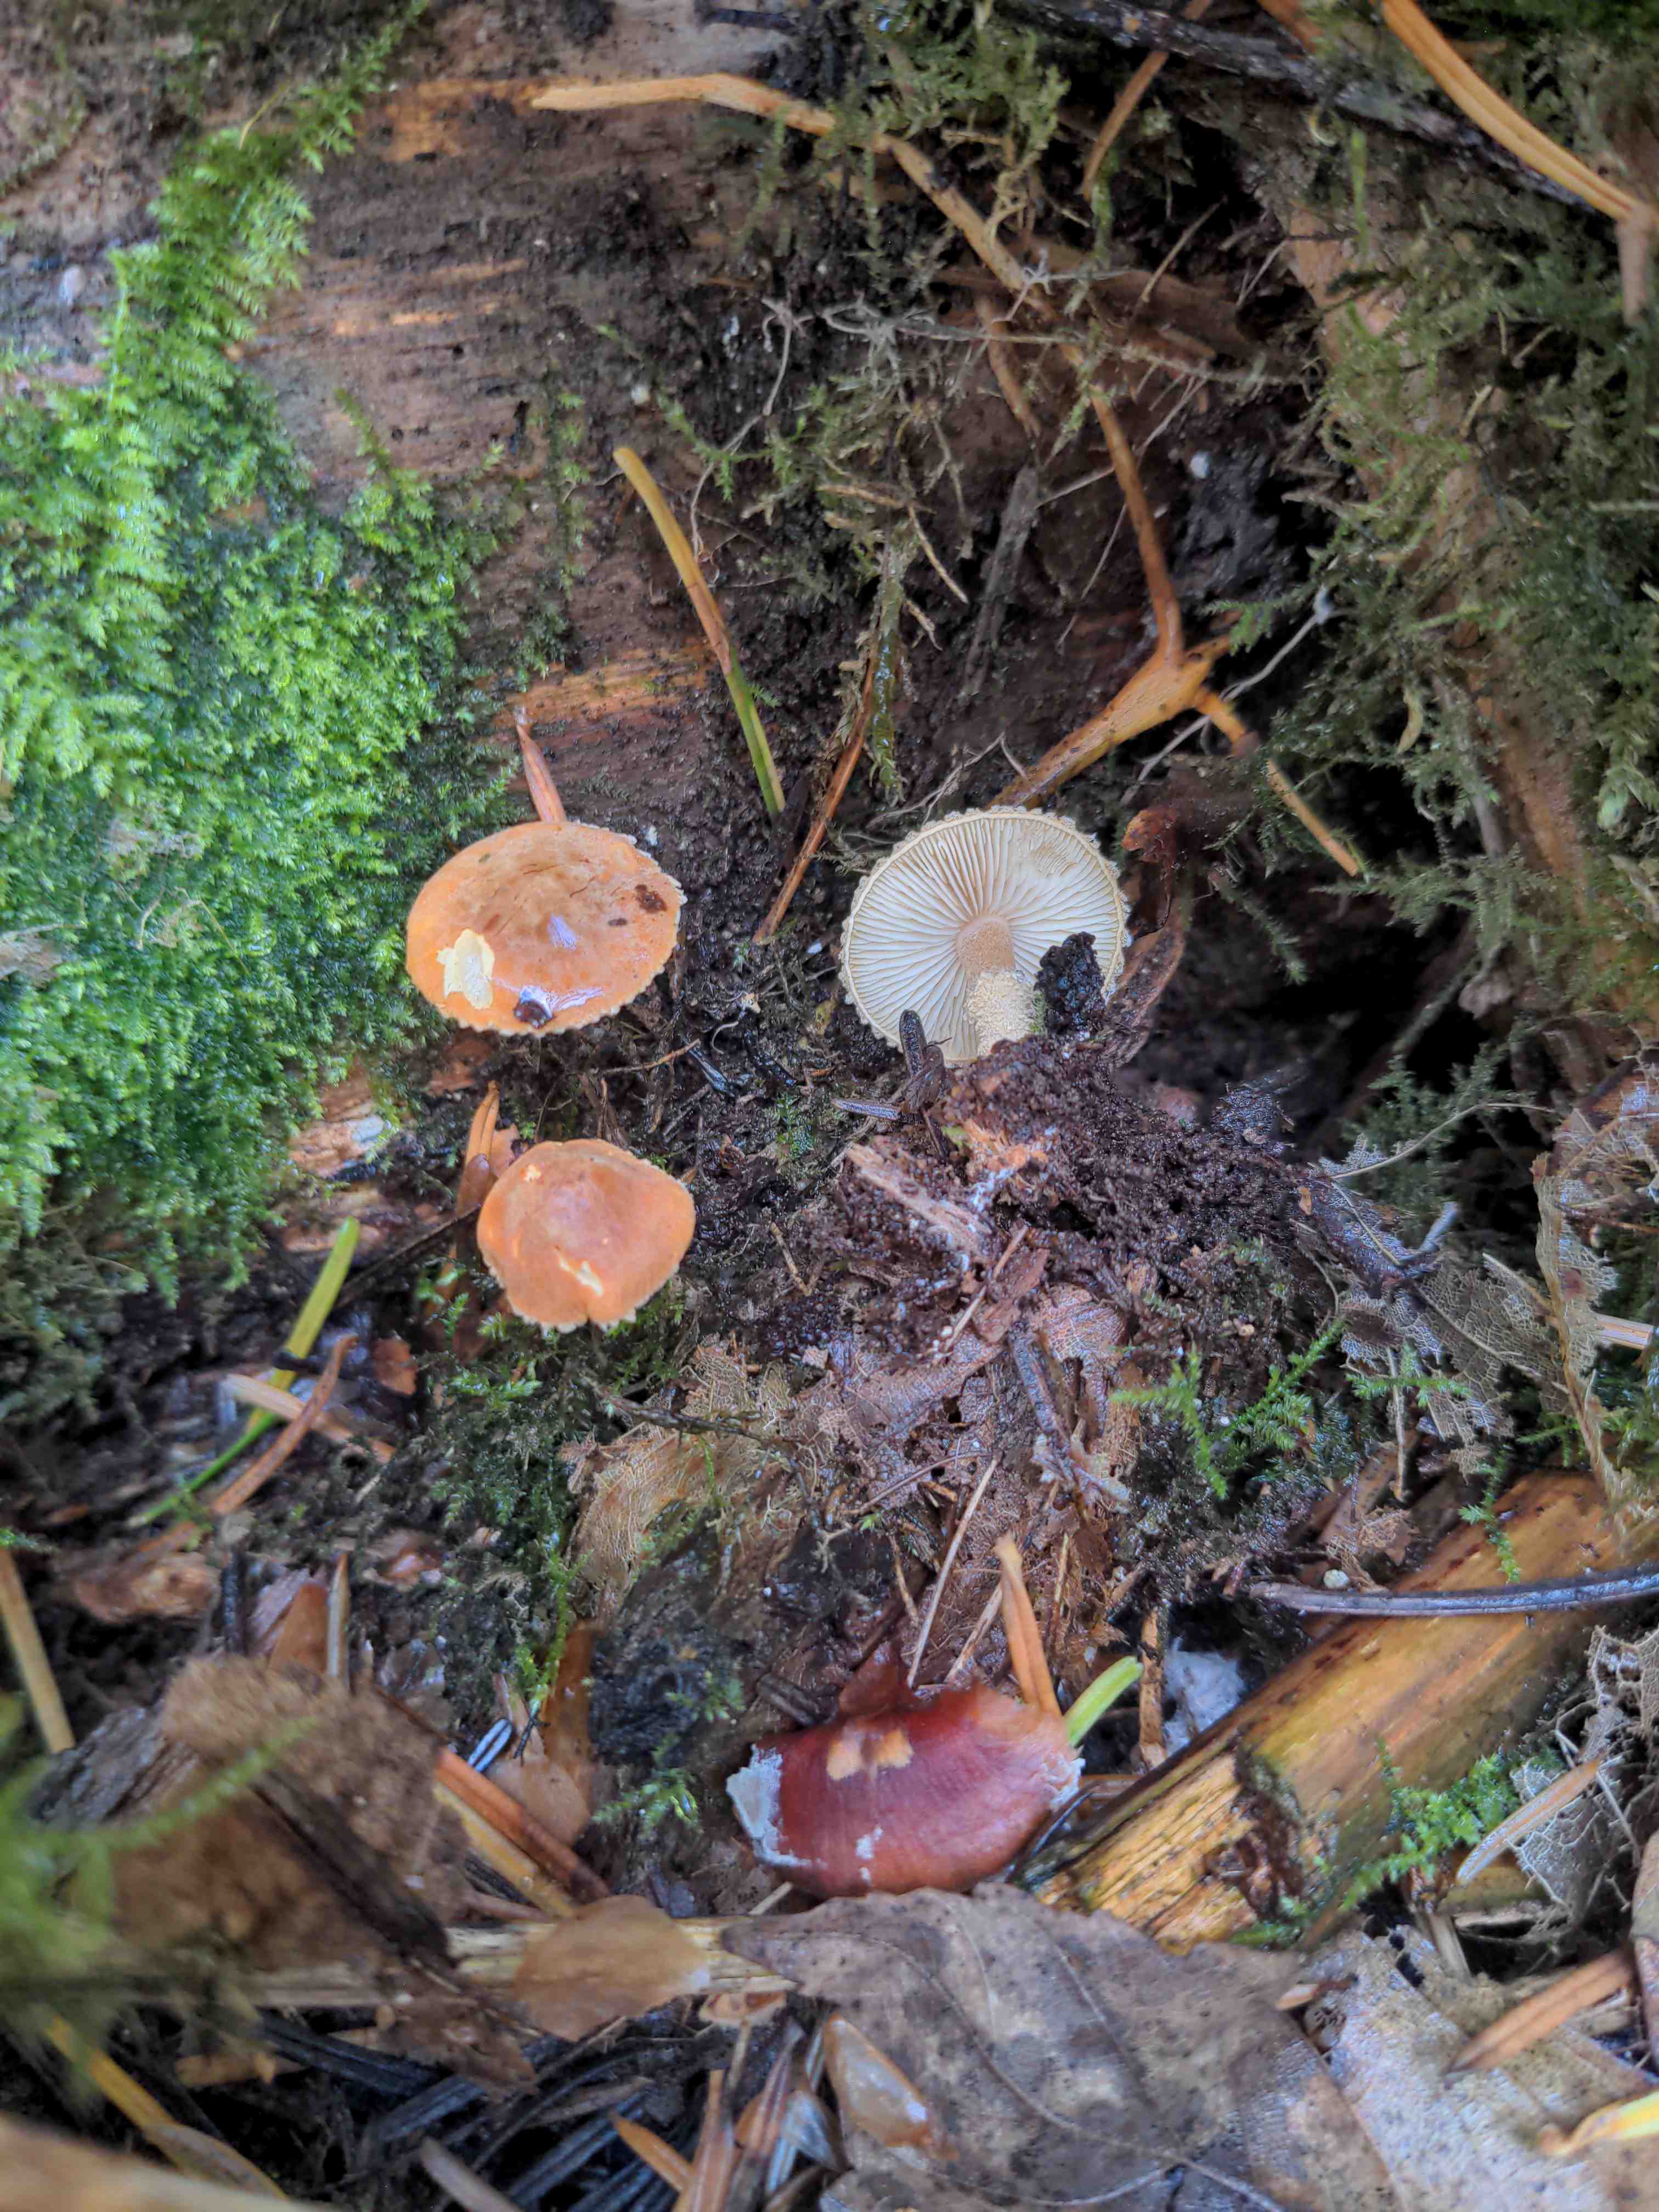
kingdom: Fungi
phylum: Basidiomycota
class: Agaricomycetes
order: Agaricales
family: Agaricaceae
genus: Lepiota
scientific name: Lepiota castanea
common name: kastaniebrun parasolhat
